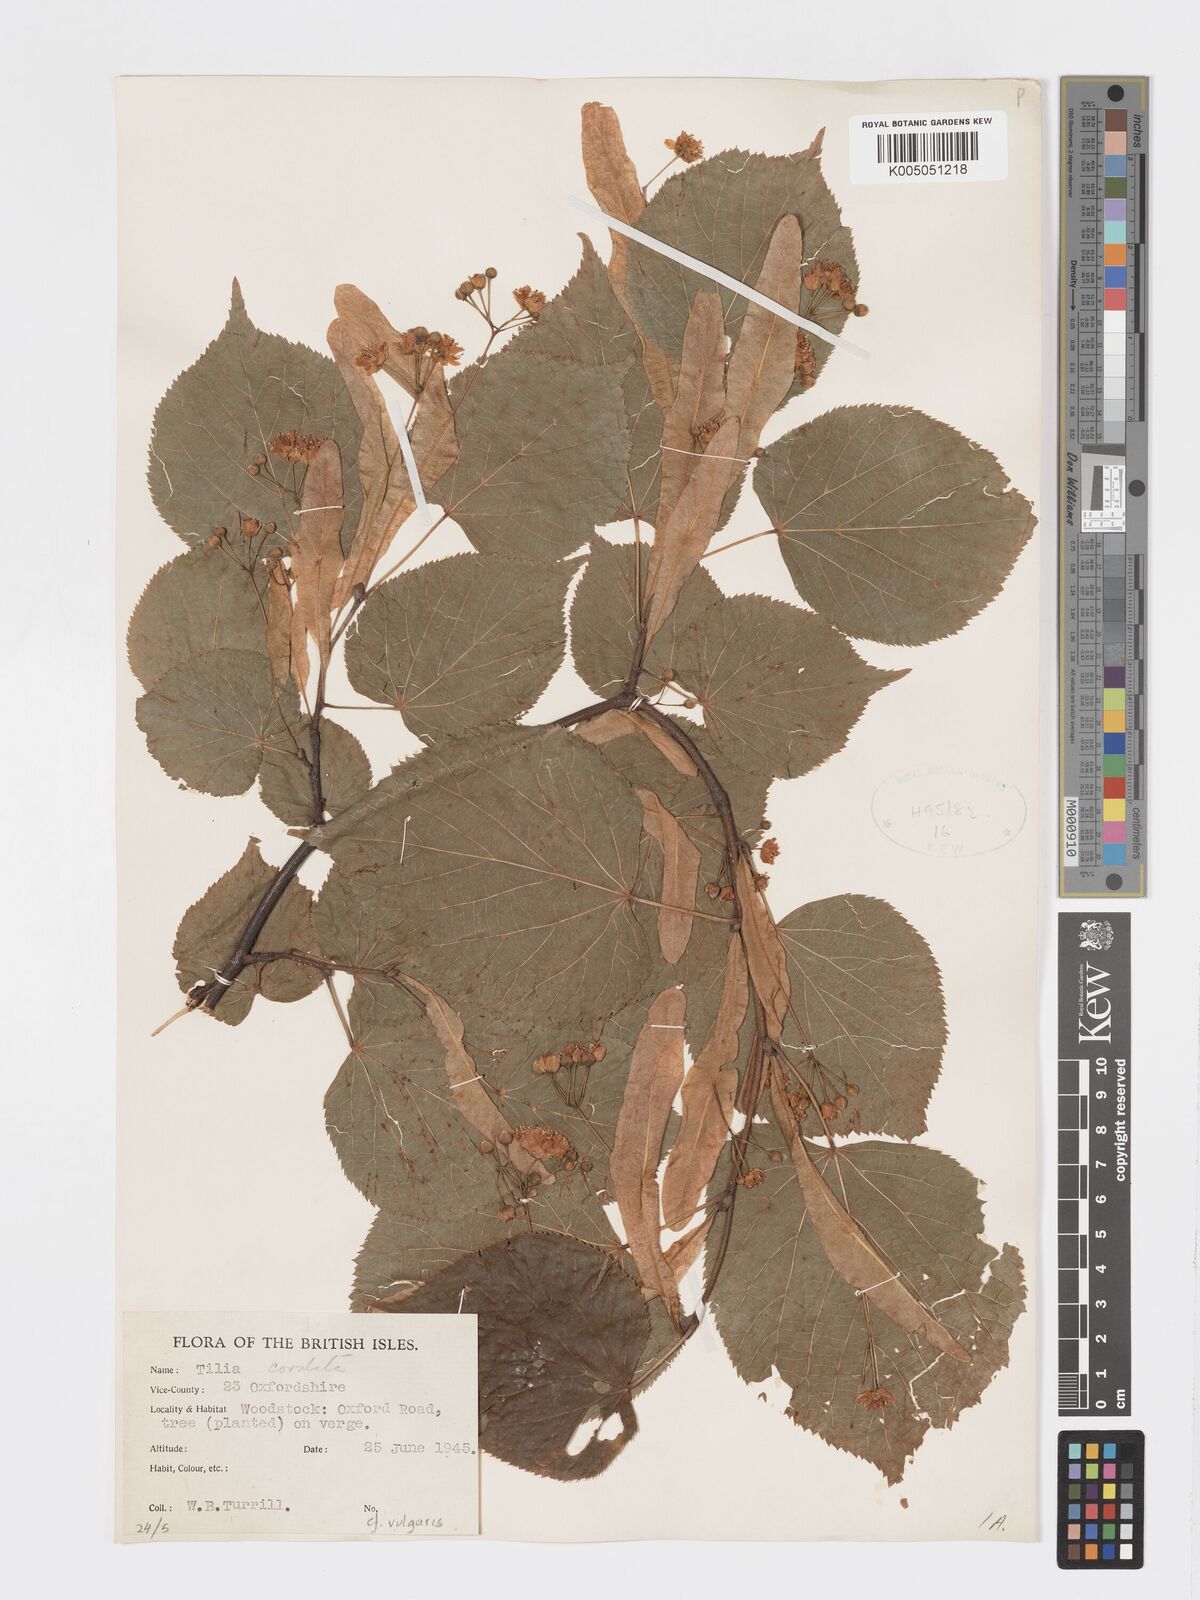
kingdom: Plantae
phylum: Tracheophyta
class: Magnoliopsida
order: Malvales
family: Malvaceae
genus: Tilia
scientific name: Tilia cordata
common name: Small-leaved lime
